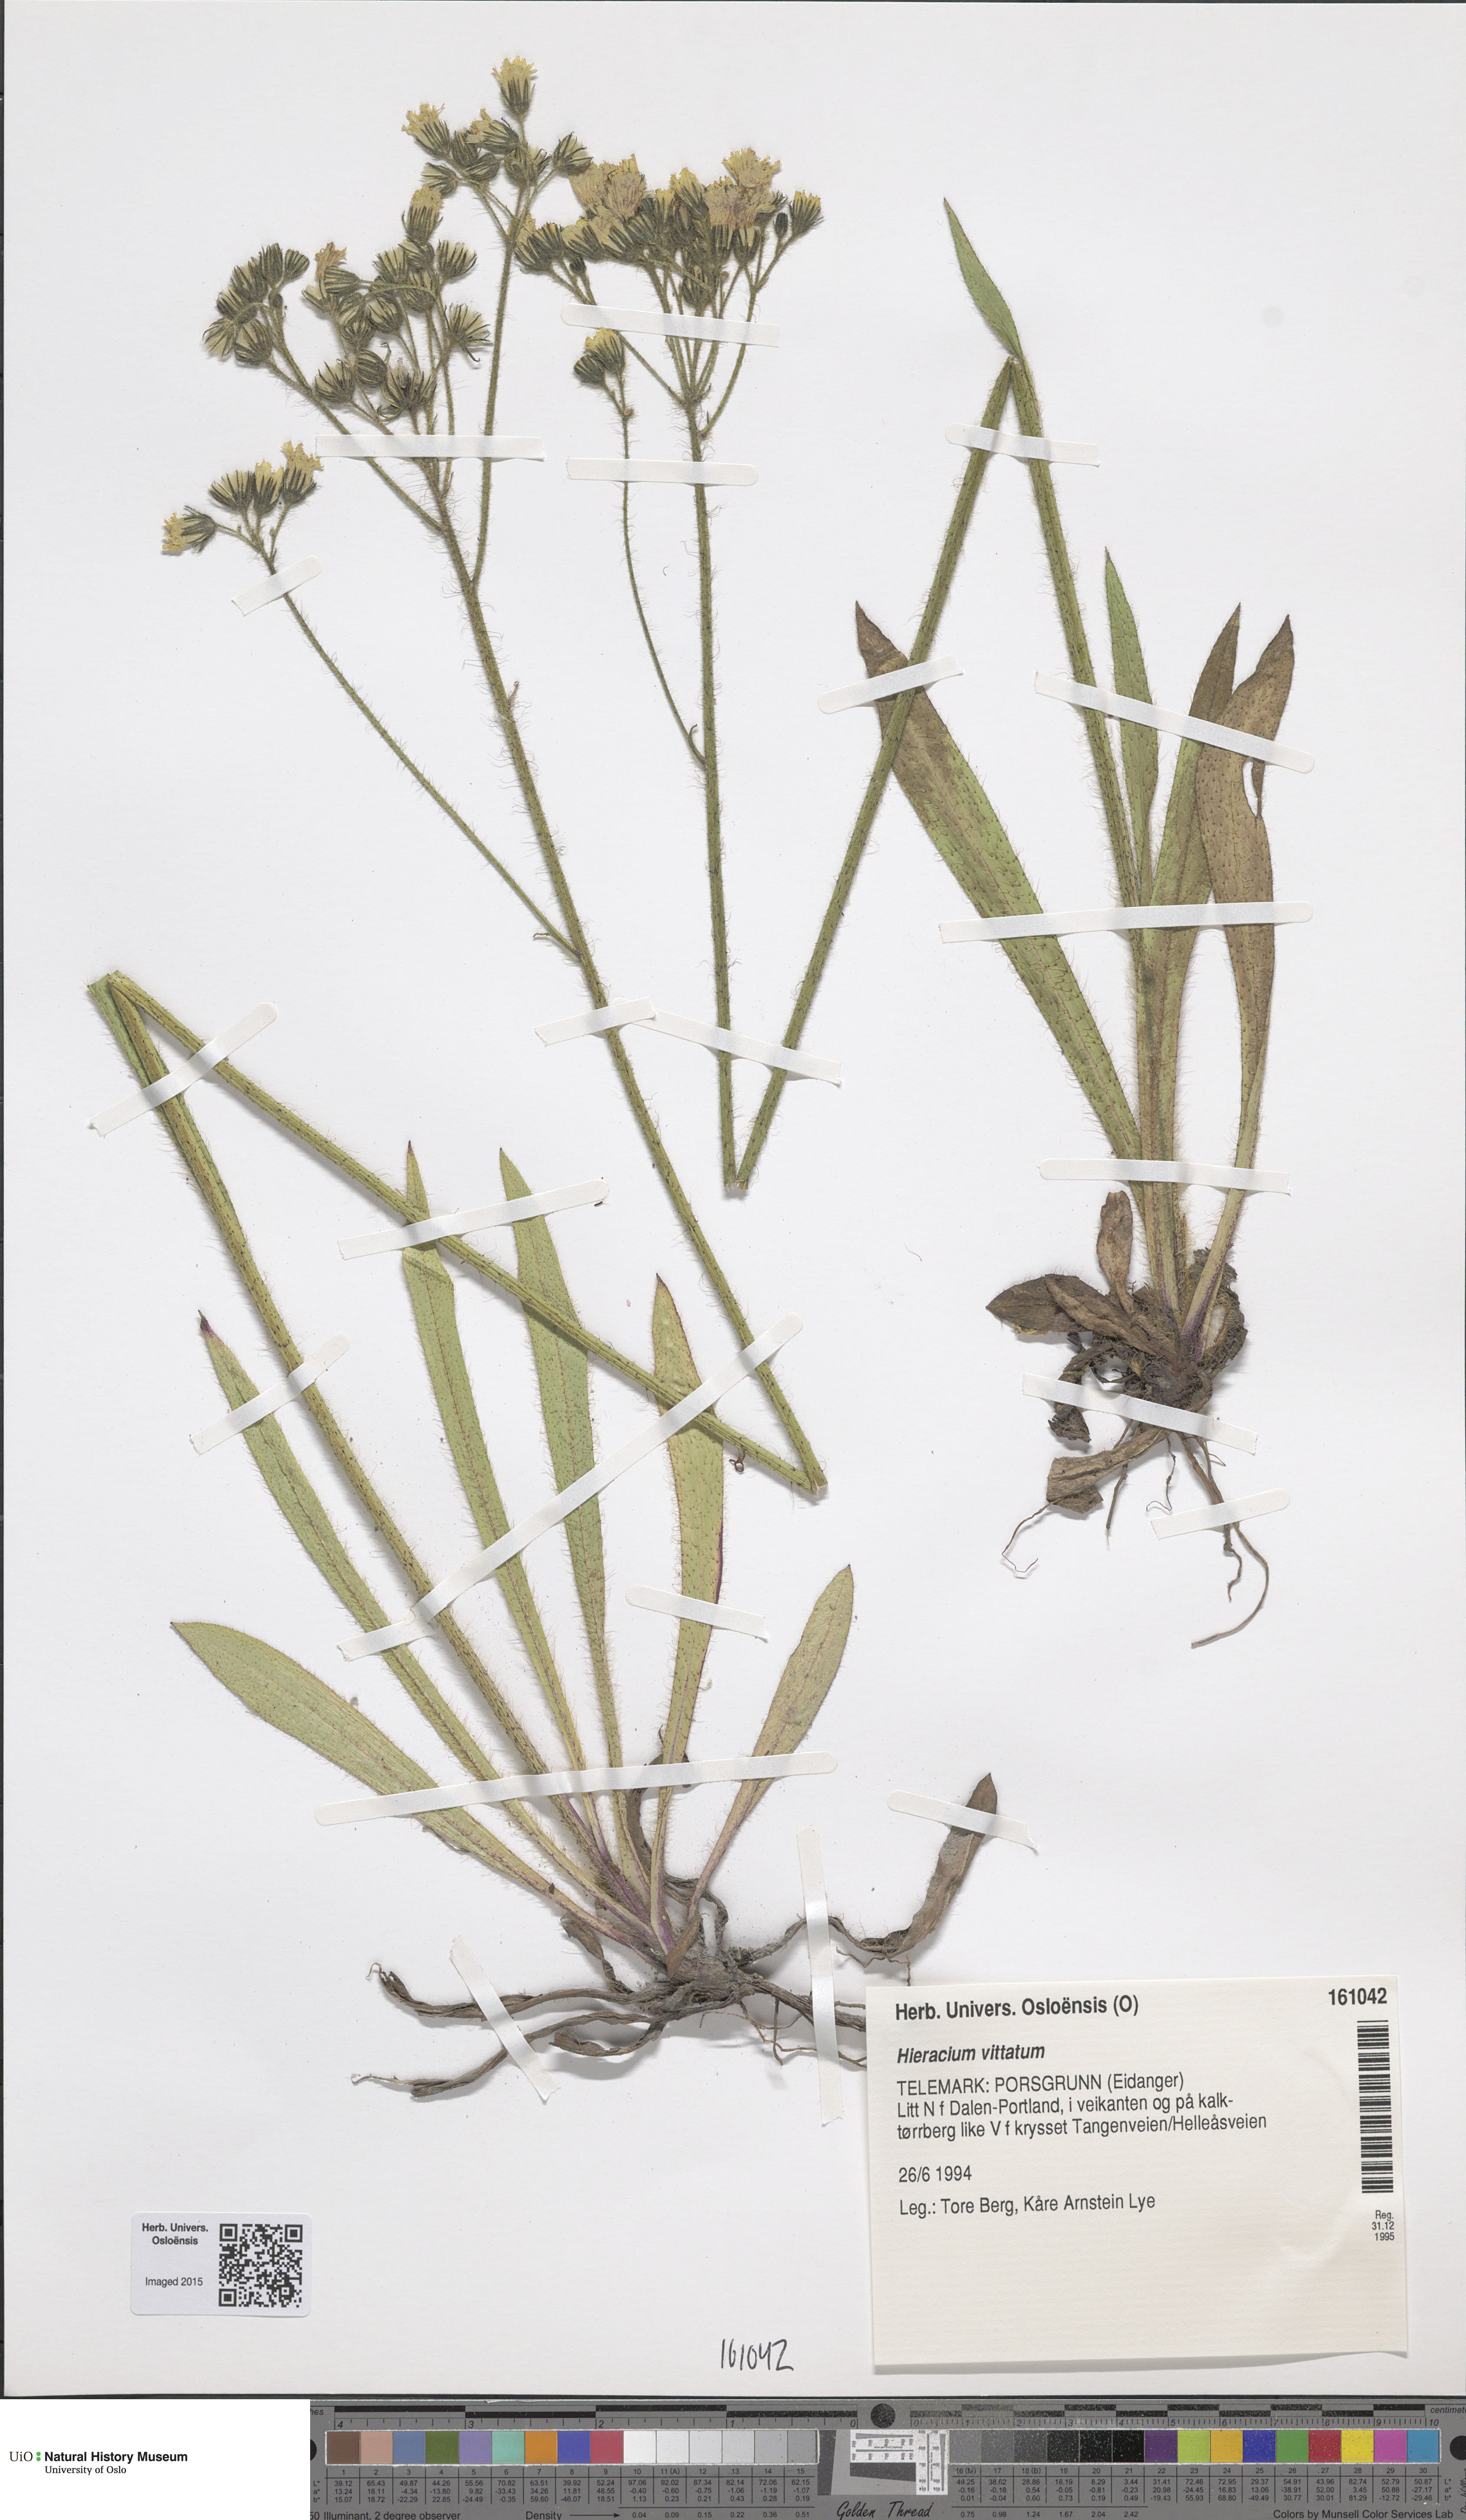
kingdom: Plantae
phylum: Tracheophyta
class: Magnoliopsida
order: Asterales
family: Asteraceae
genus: Pilosella
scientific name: Pilosella dimorphoides
